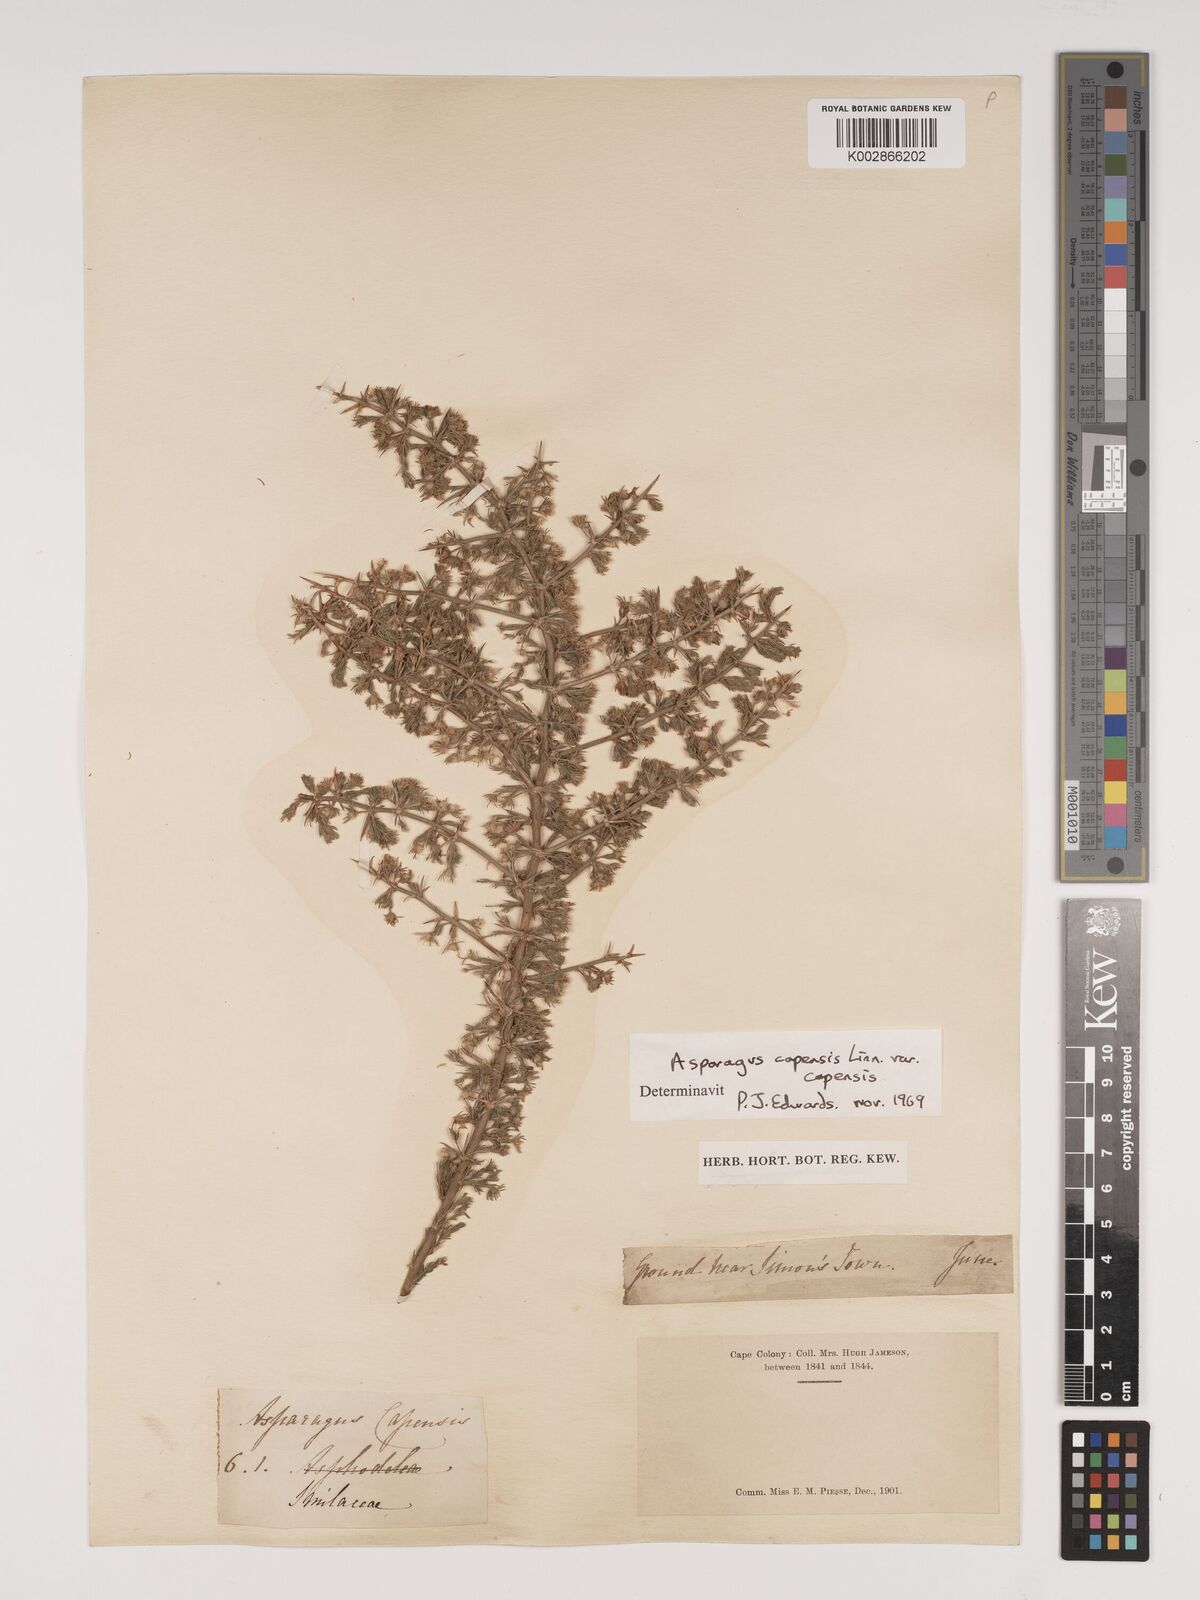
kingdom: Plantae
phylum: Tracheophyta
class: Liliopsida
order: Asparagales
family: Asparagaceae
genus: Asparagus
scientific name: Asparagus capensis
